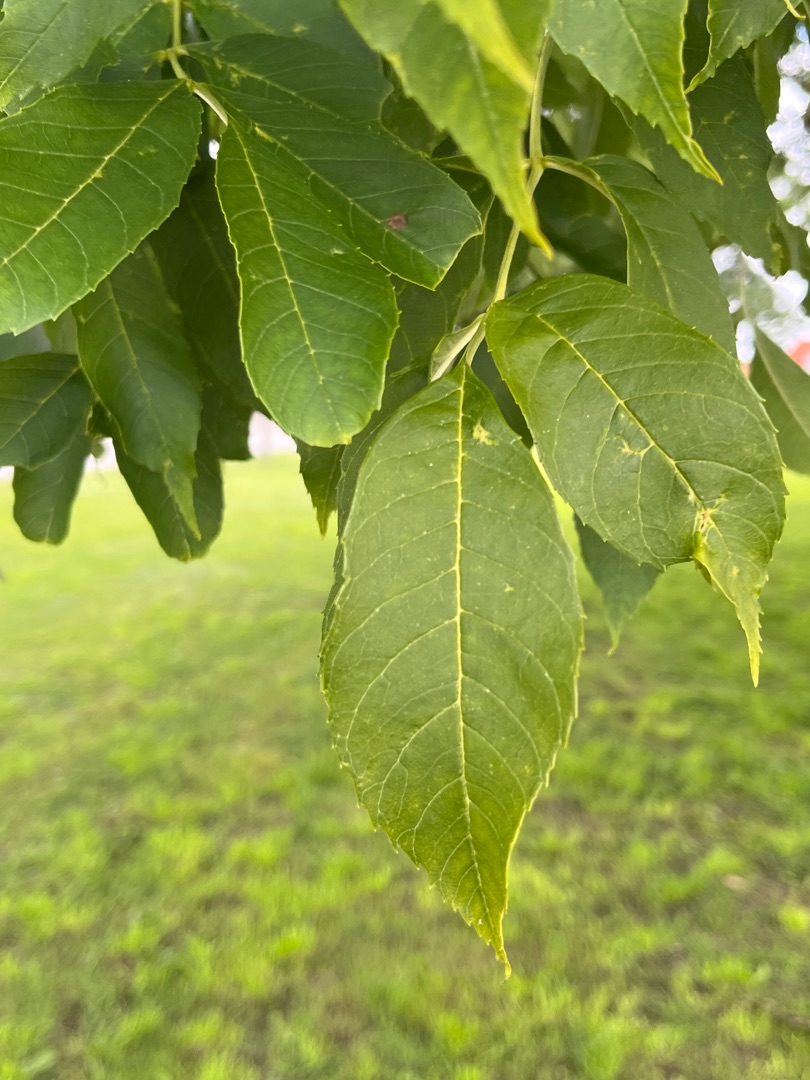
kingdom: Plantae
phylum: Tracheophyta
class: Magnoliopsida
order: Lamiales
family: Oleaceae
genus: Fraxinus
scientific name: Fraxinus excelsior
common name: Ask
